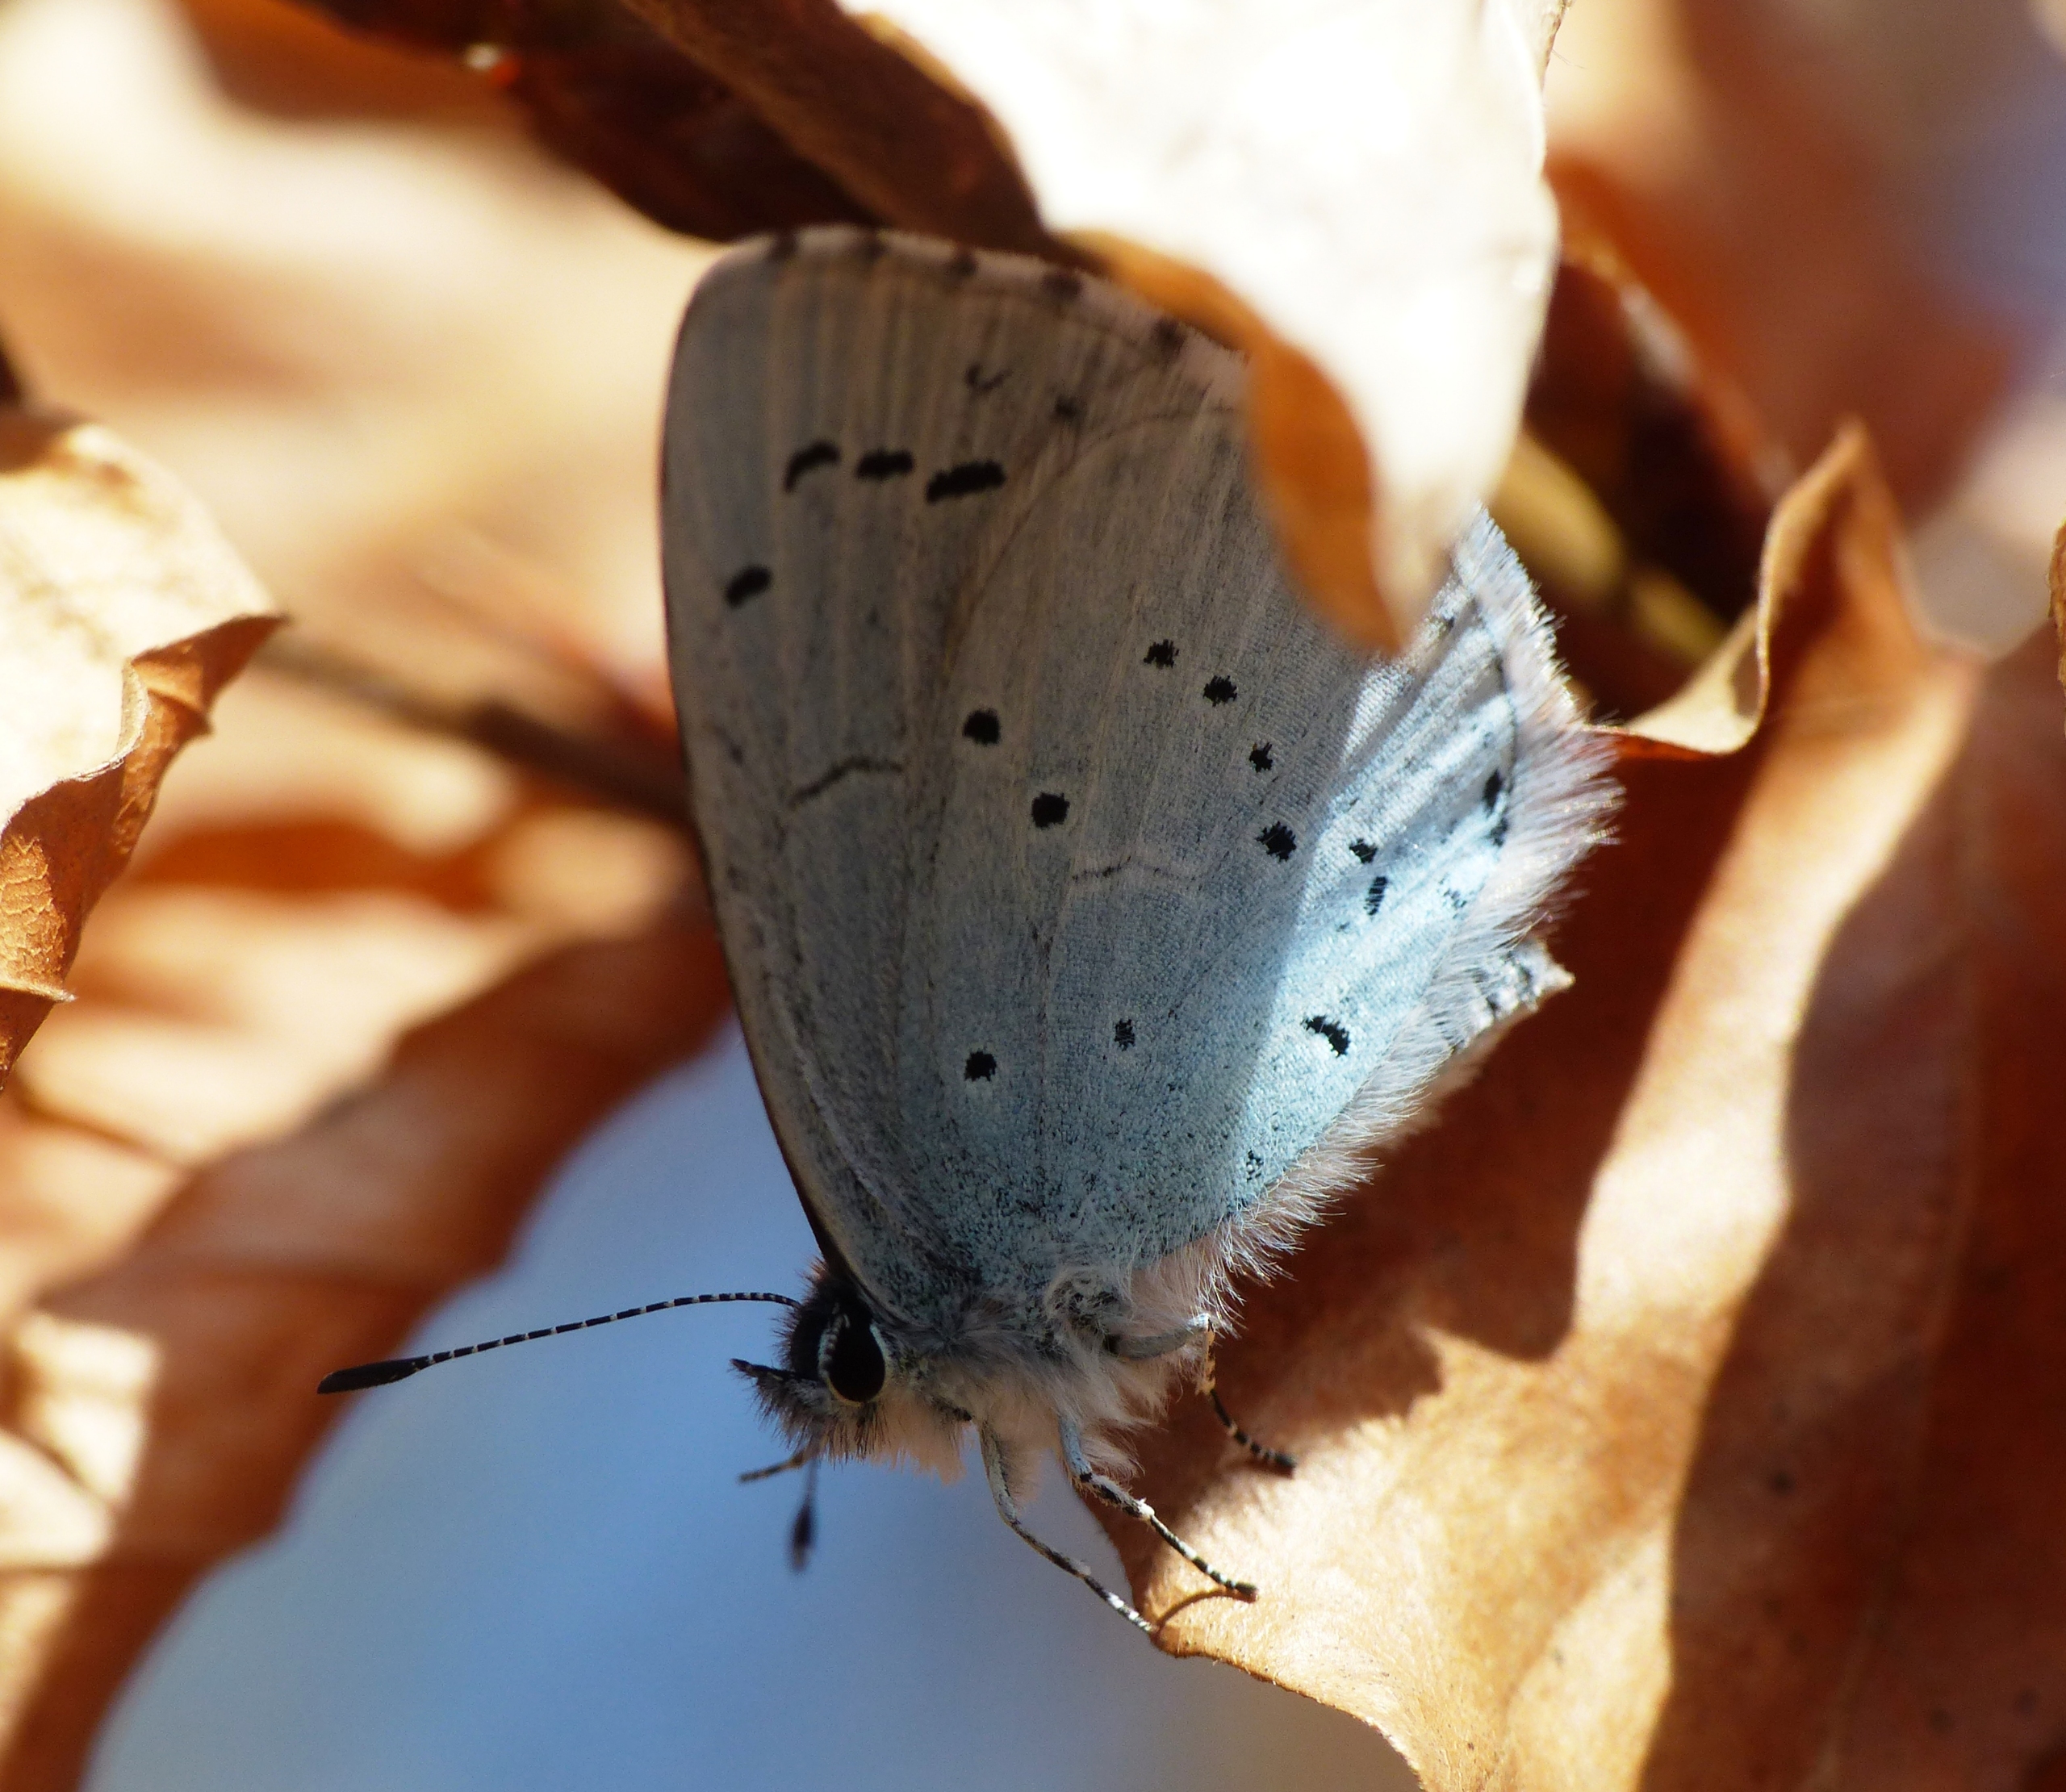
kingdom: Animalia
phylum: Arthropoda
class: Insecta
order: Lepidoptera
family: Lycaenidae
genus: Celastrina
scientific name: Celastrina argiolus
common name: Skovblåfugl
